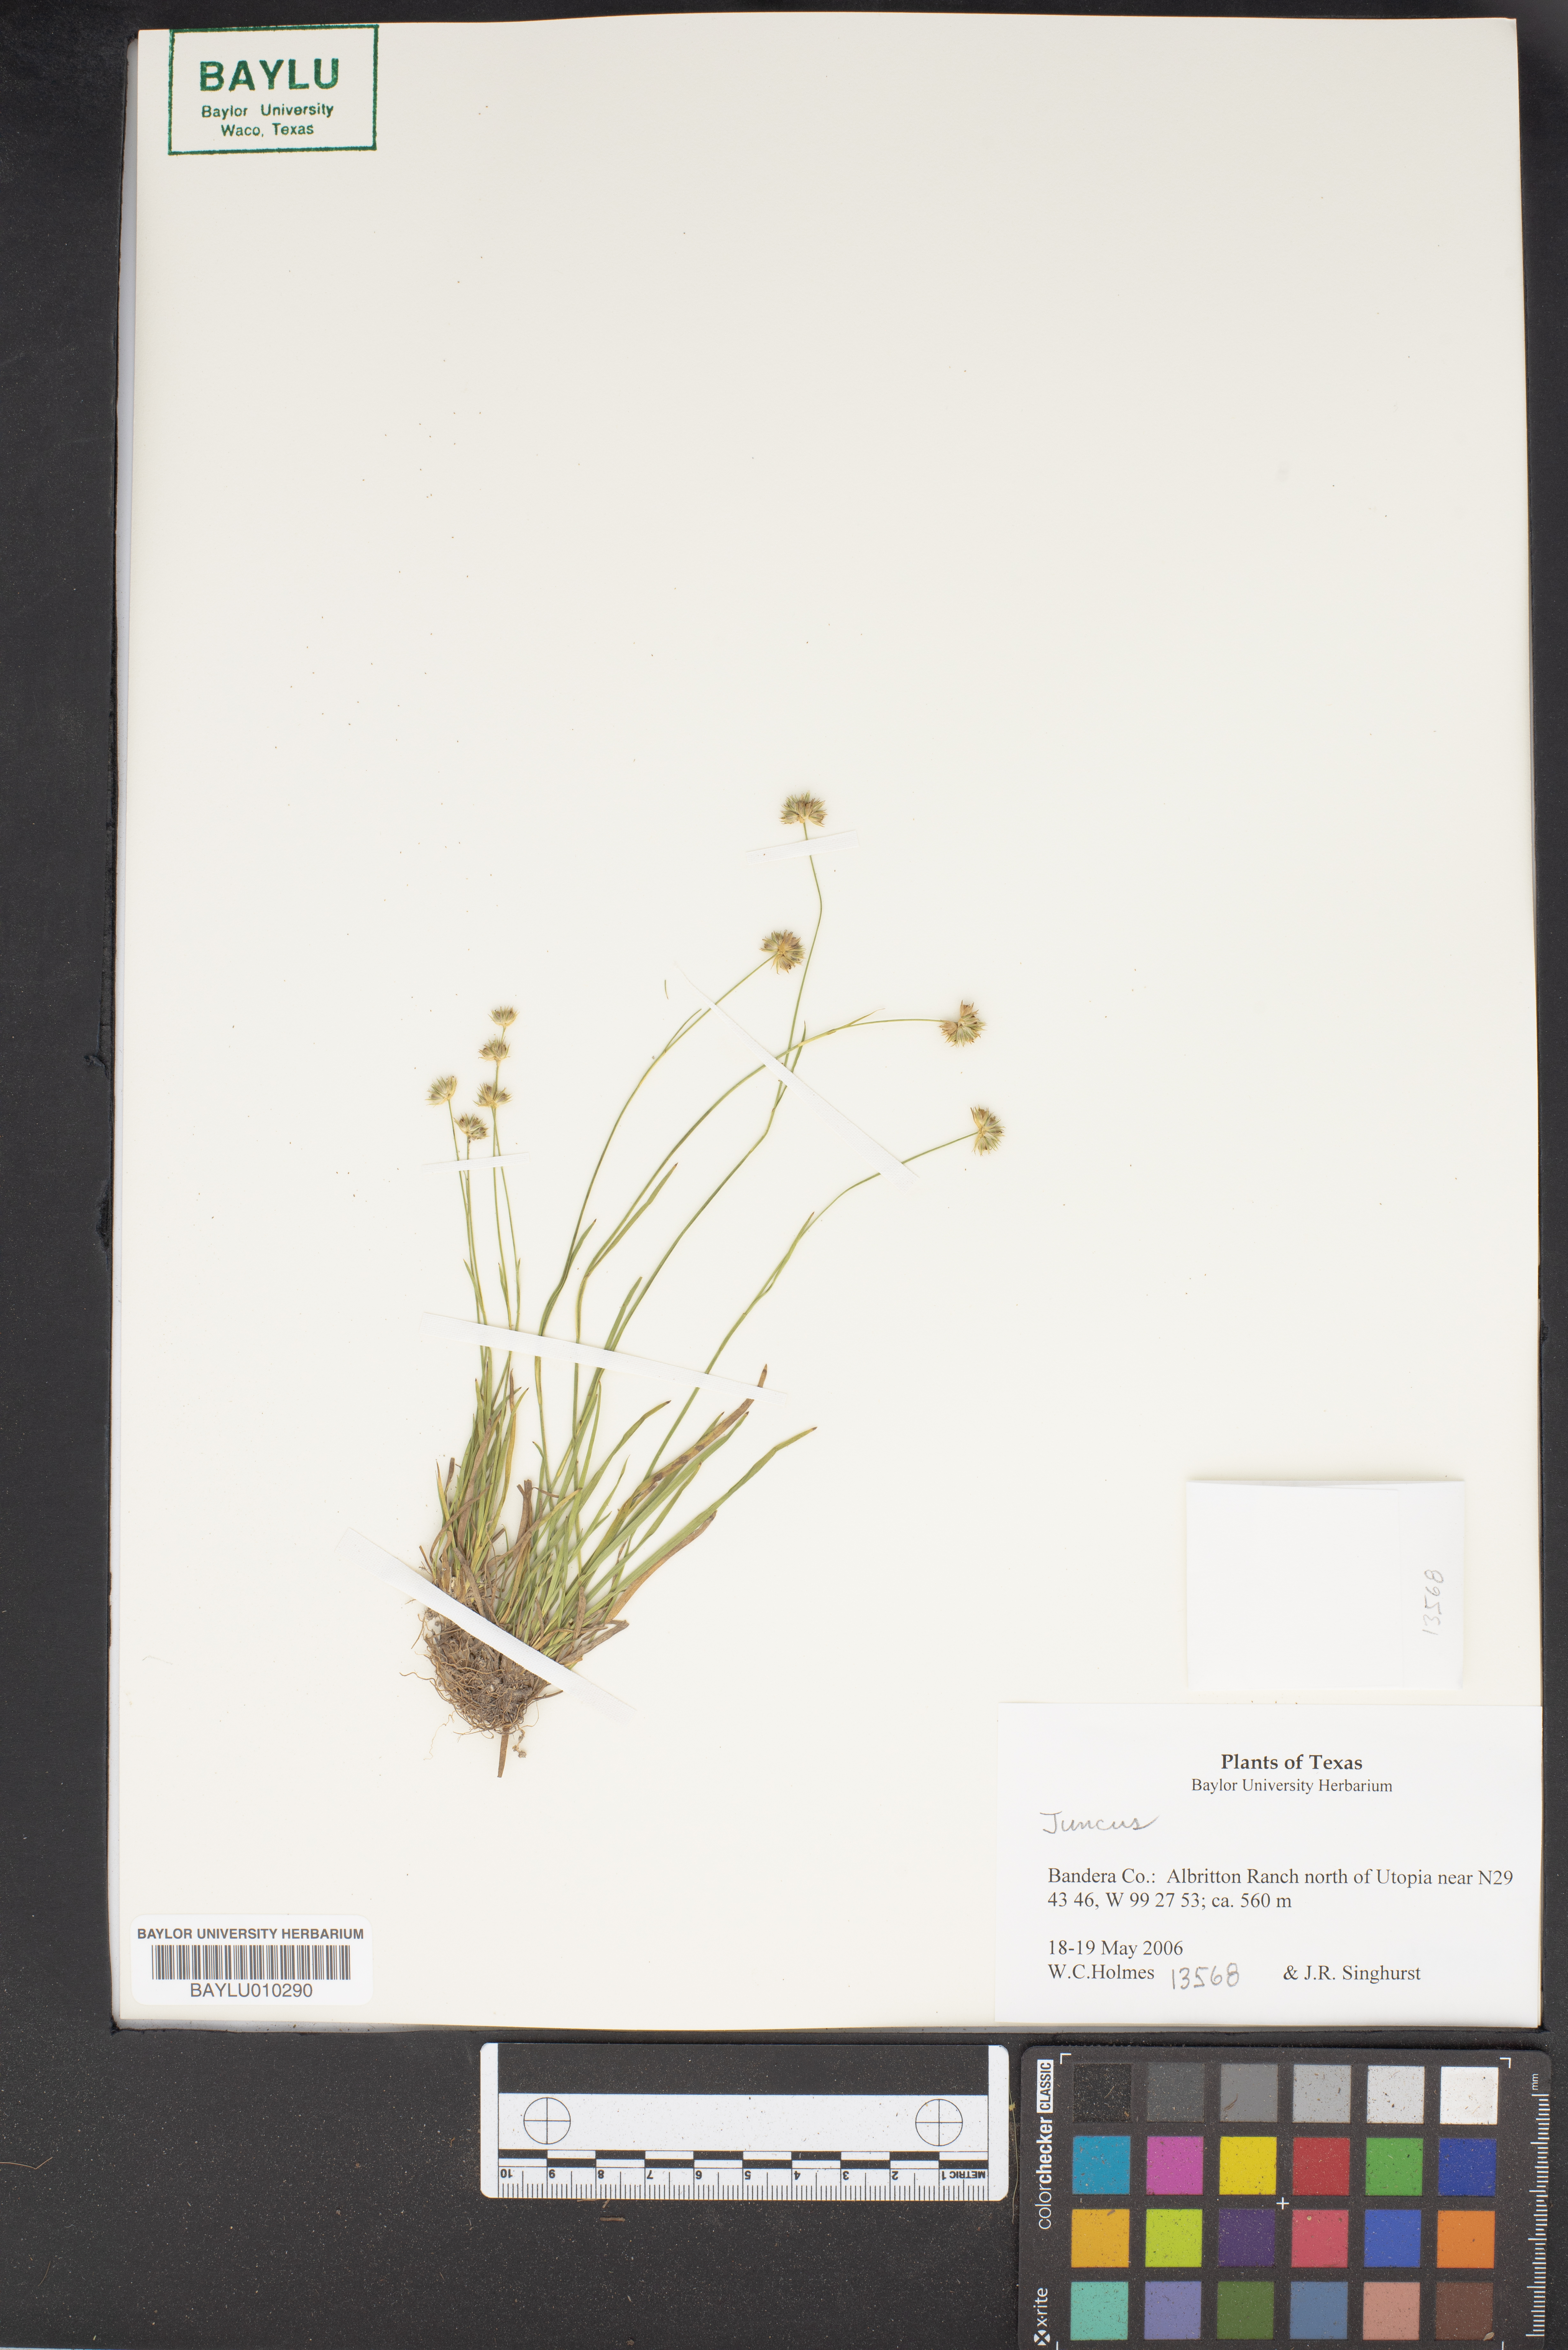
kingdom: Plantae
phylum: Tracheophyta
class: Liliopsida
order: Poales
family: Juncaceae
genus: Juncus
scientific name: Juncus
